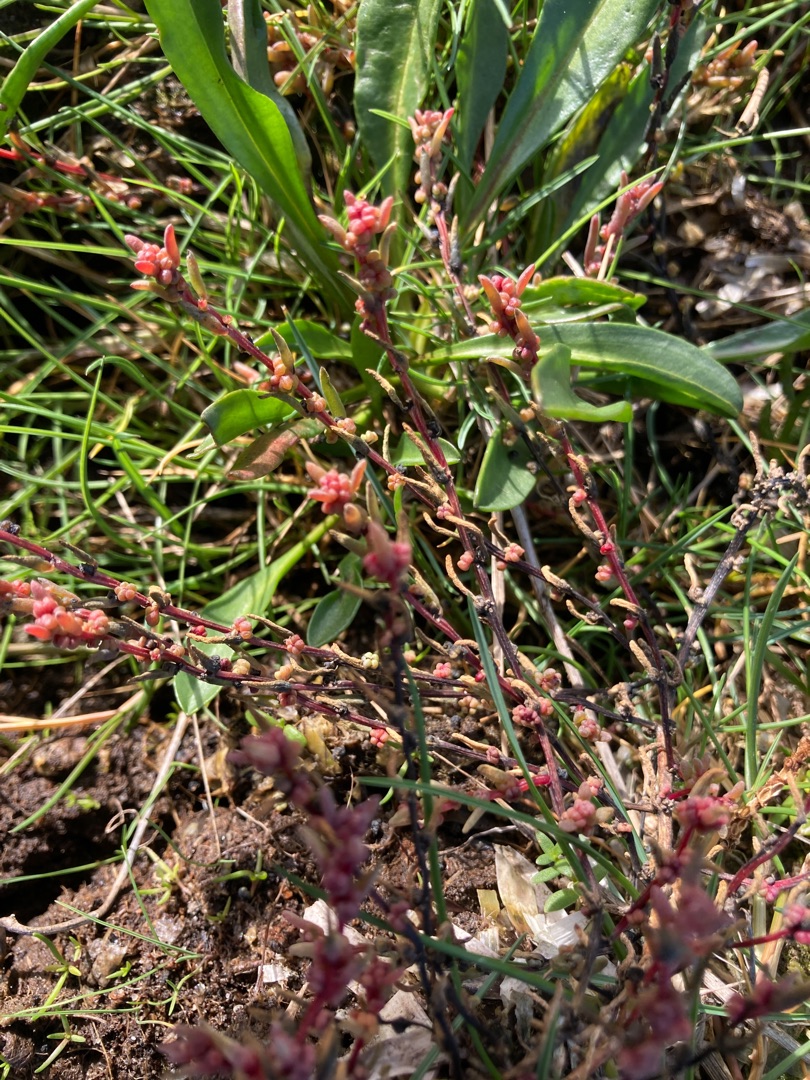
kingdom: Plantae
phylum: Tracheophyta
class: Magnoliopsida
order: Caryophyllales
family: Amaranthaceae
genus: Suaeda
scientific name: Suaeda maritima
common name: Strandgåsefod
